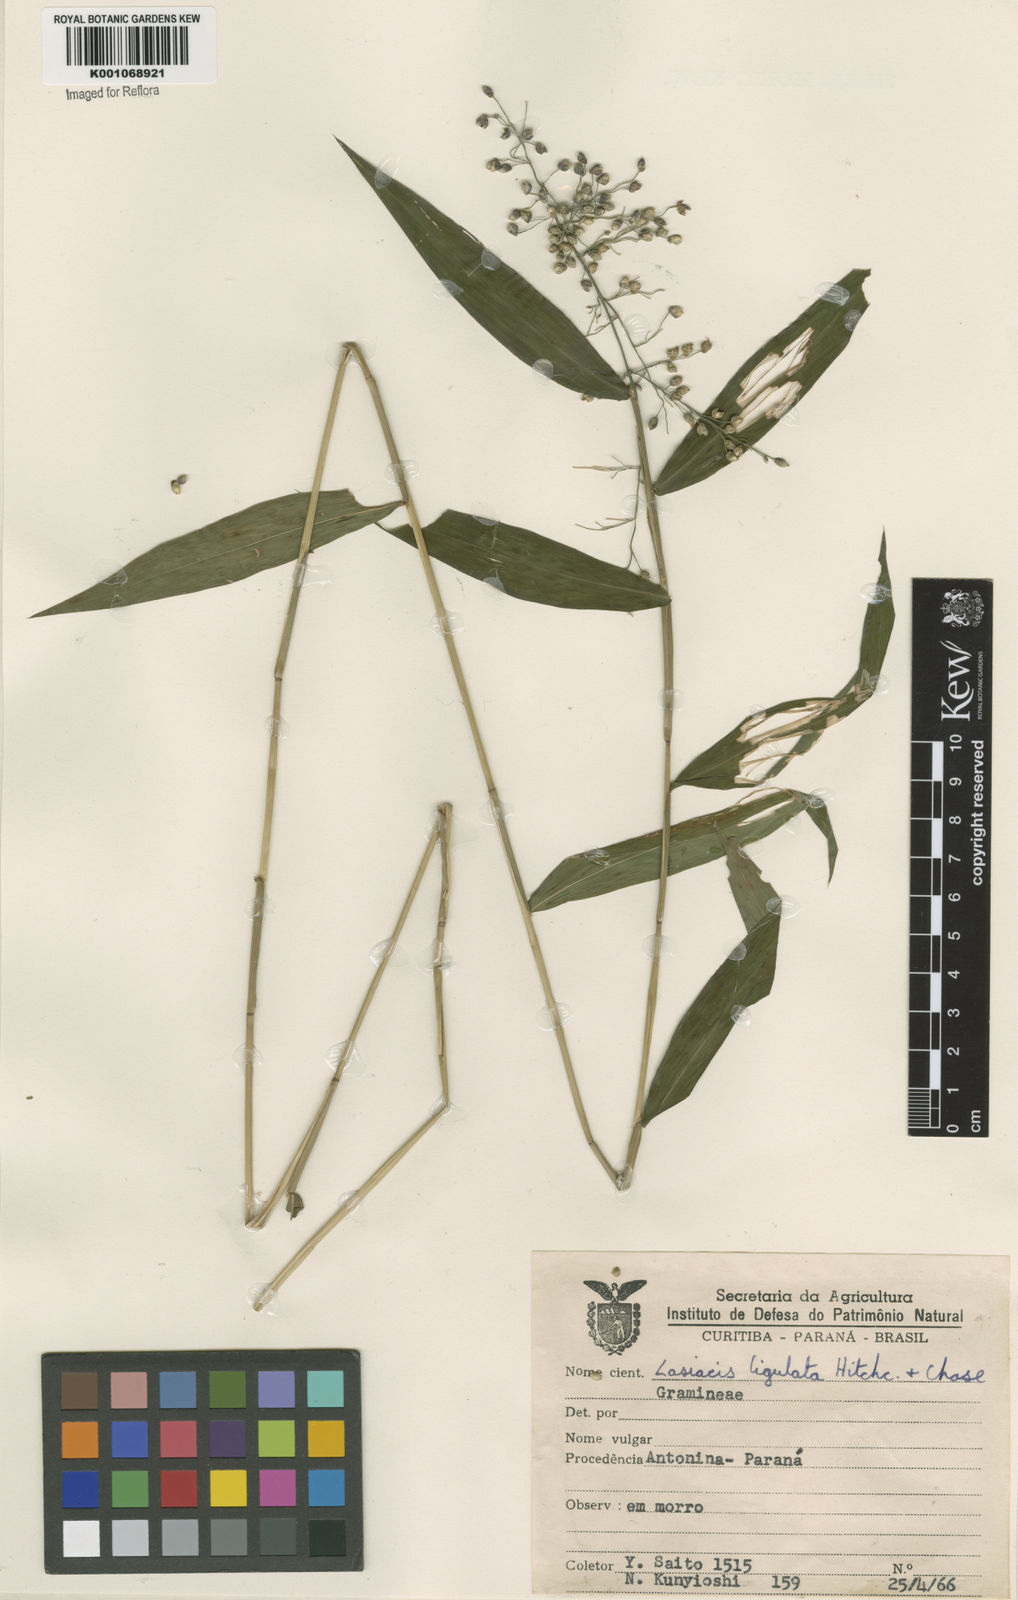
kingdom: Plantae
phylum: Tracheophyta
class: Liliopsida
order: Poales
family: Poaceae
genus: Lasiacis
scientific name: Lasiacis ligulata
